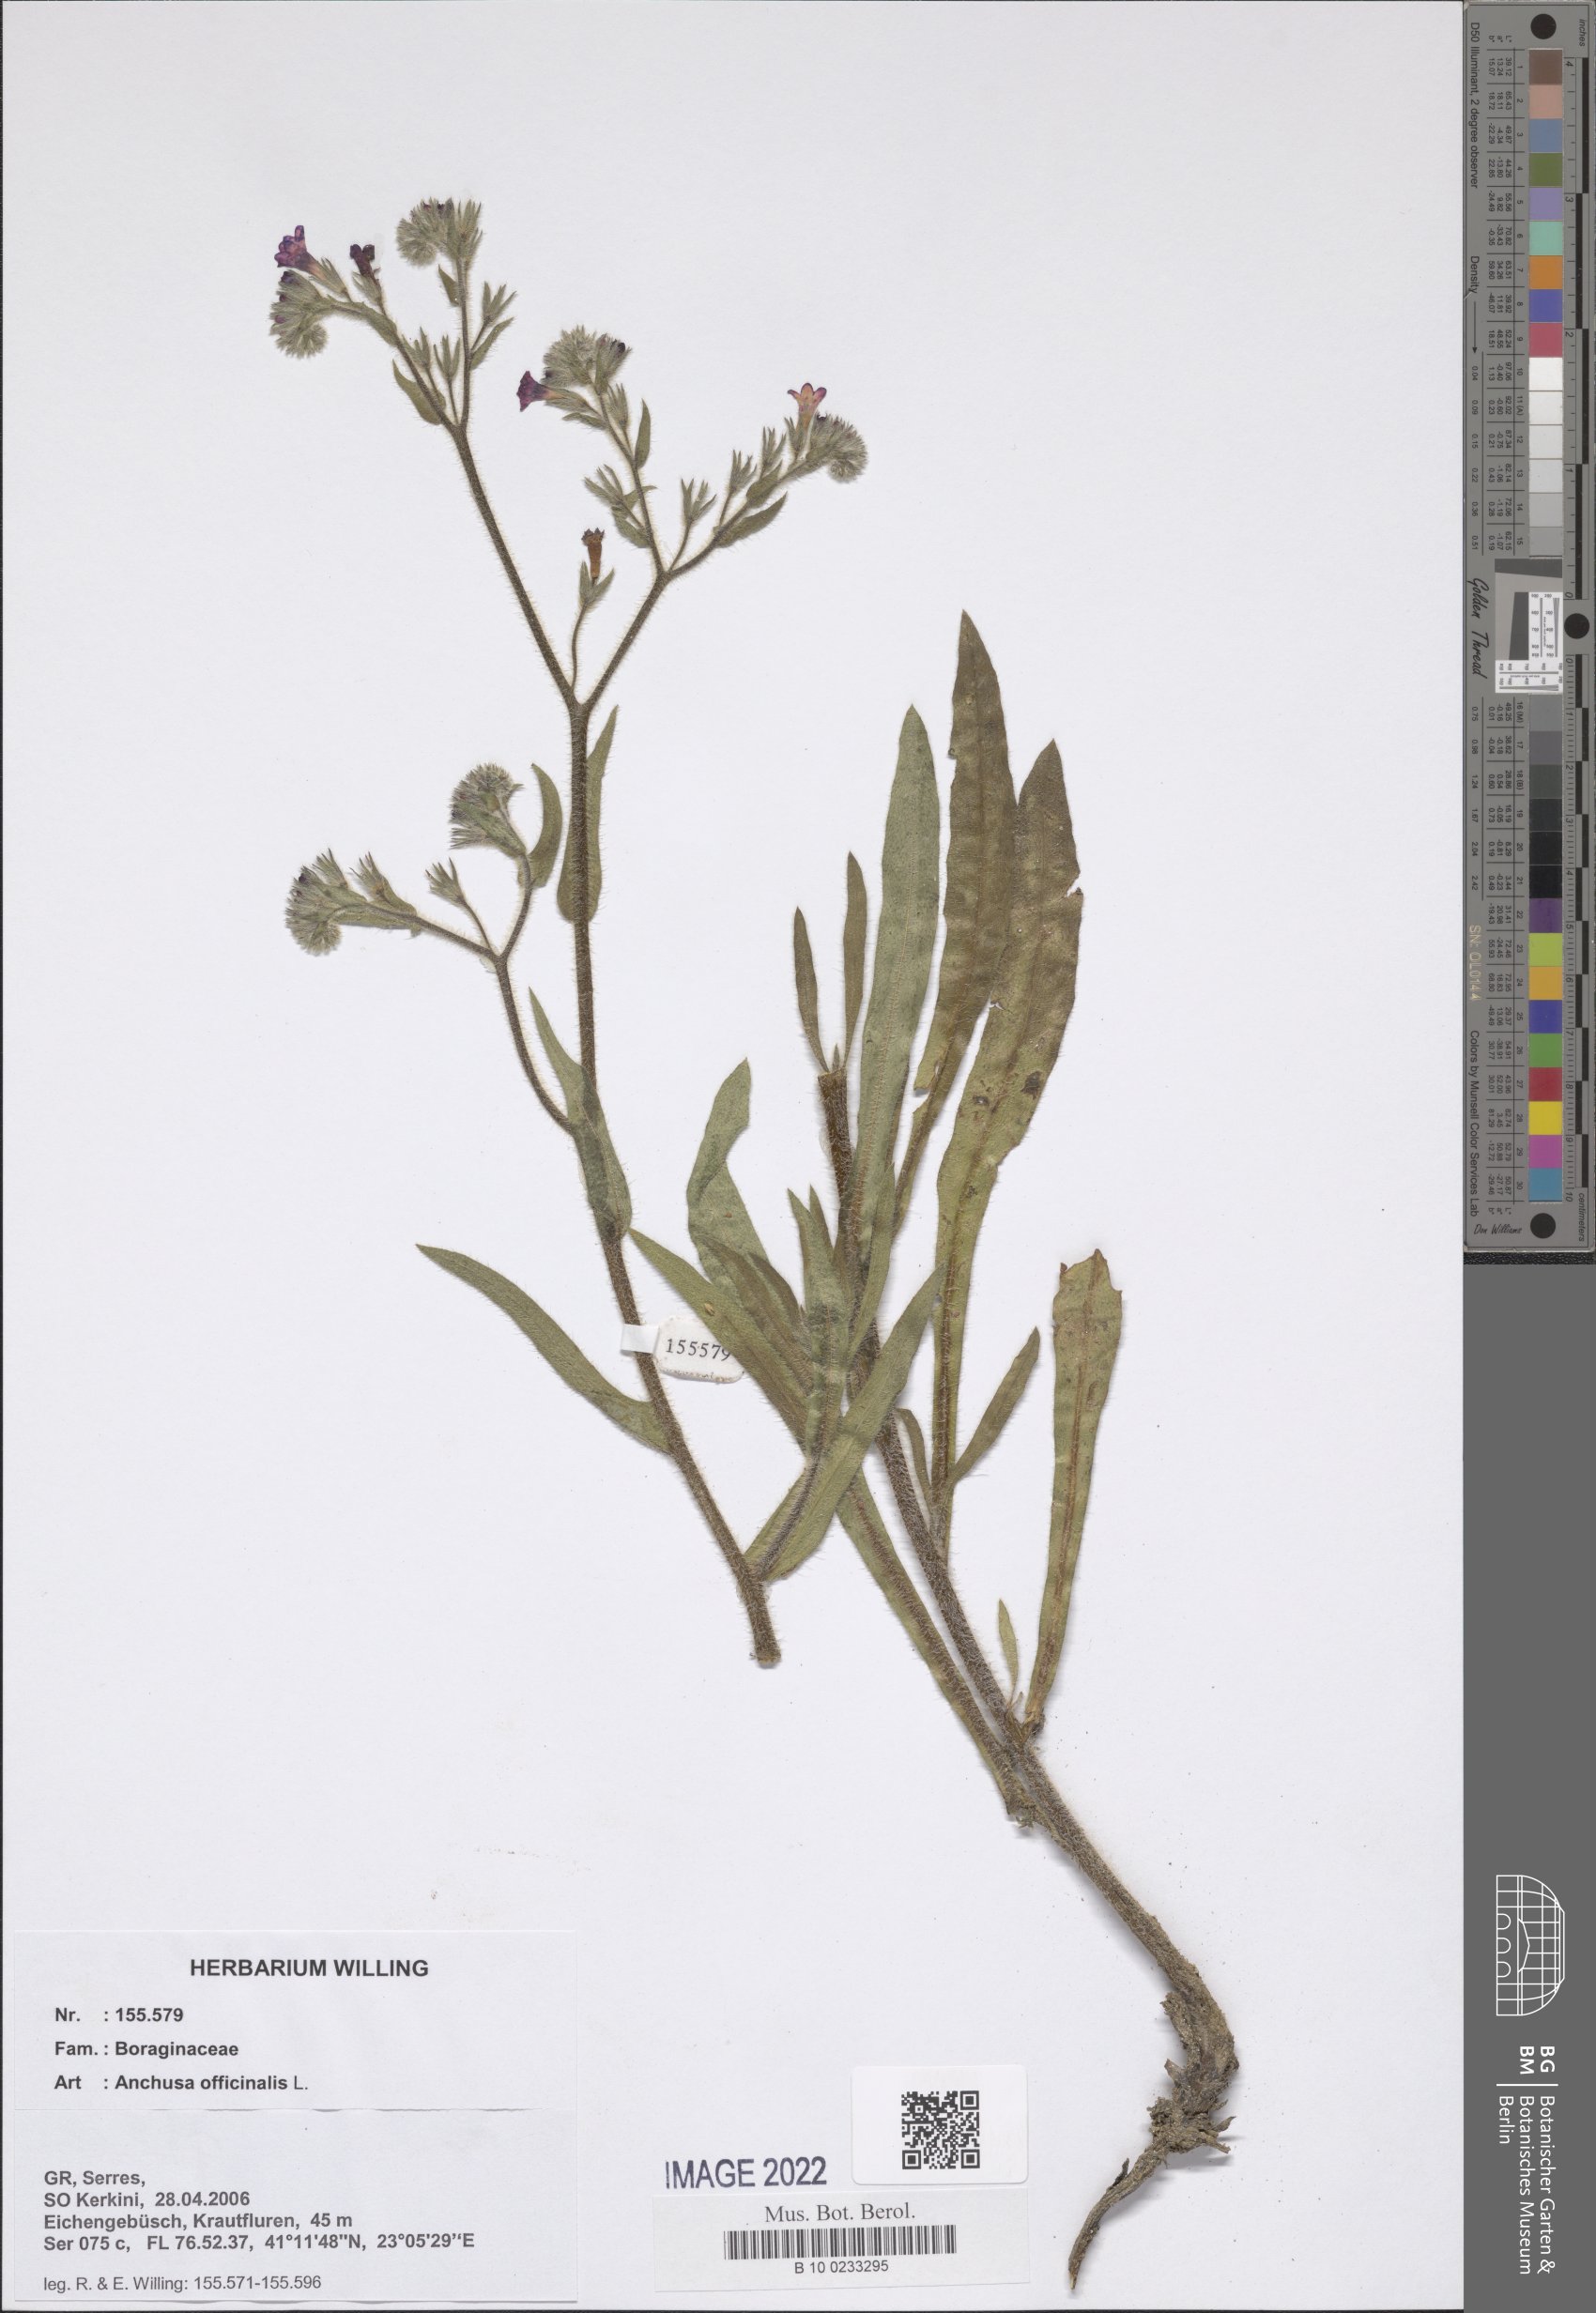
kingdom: Plantae
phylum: Tracheophyta
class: Magnoliopsida
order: Boraginales
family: Boraginaceae
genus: Anchusa
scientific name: Anchusa officinalis
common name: Alkanet
